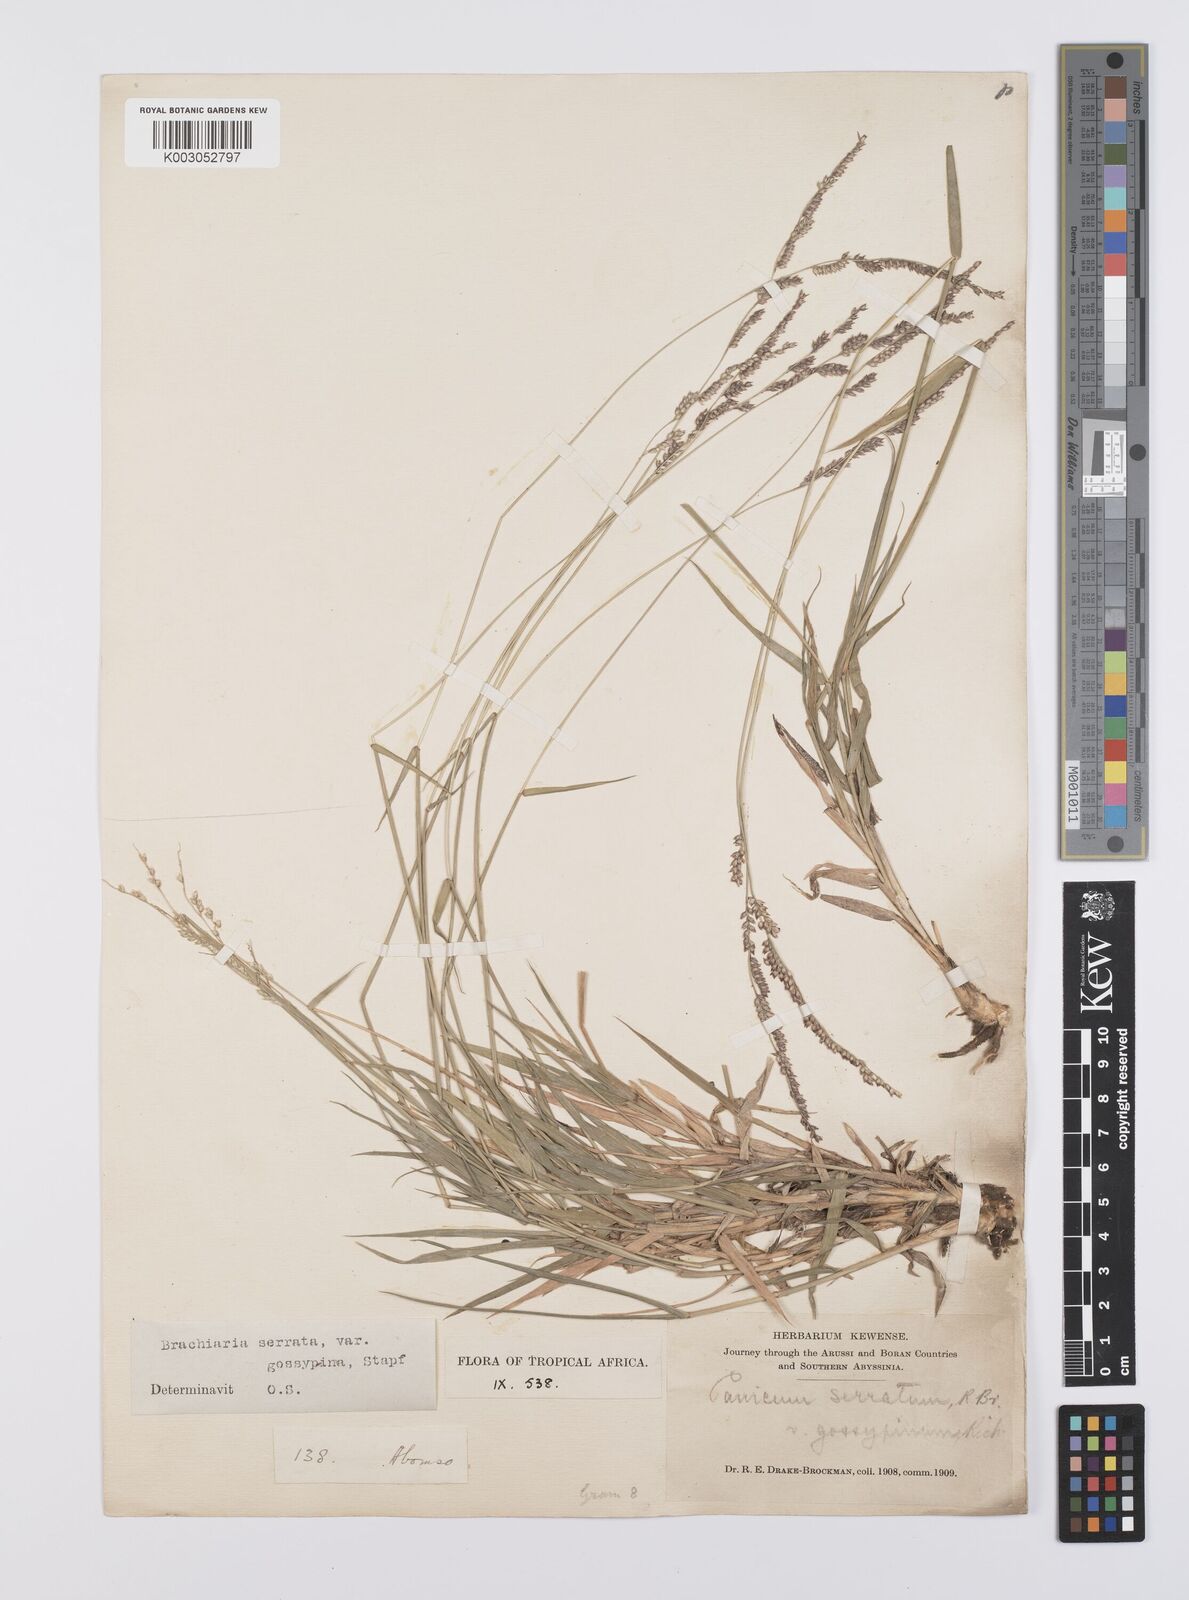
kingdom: Plantae
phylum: Tracheophyta
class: Liliopsida
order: Poales
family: Poaceae
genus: Urochloa
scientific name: Urochloa serrata
